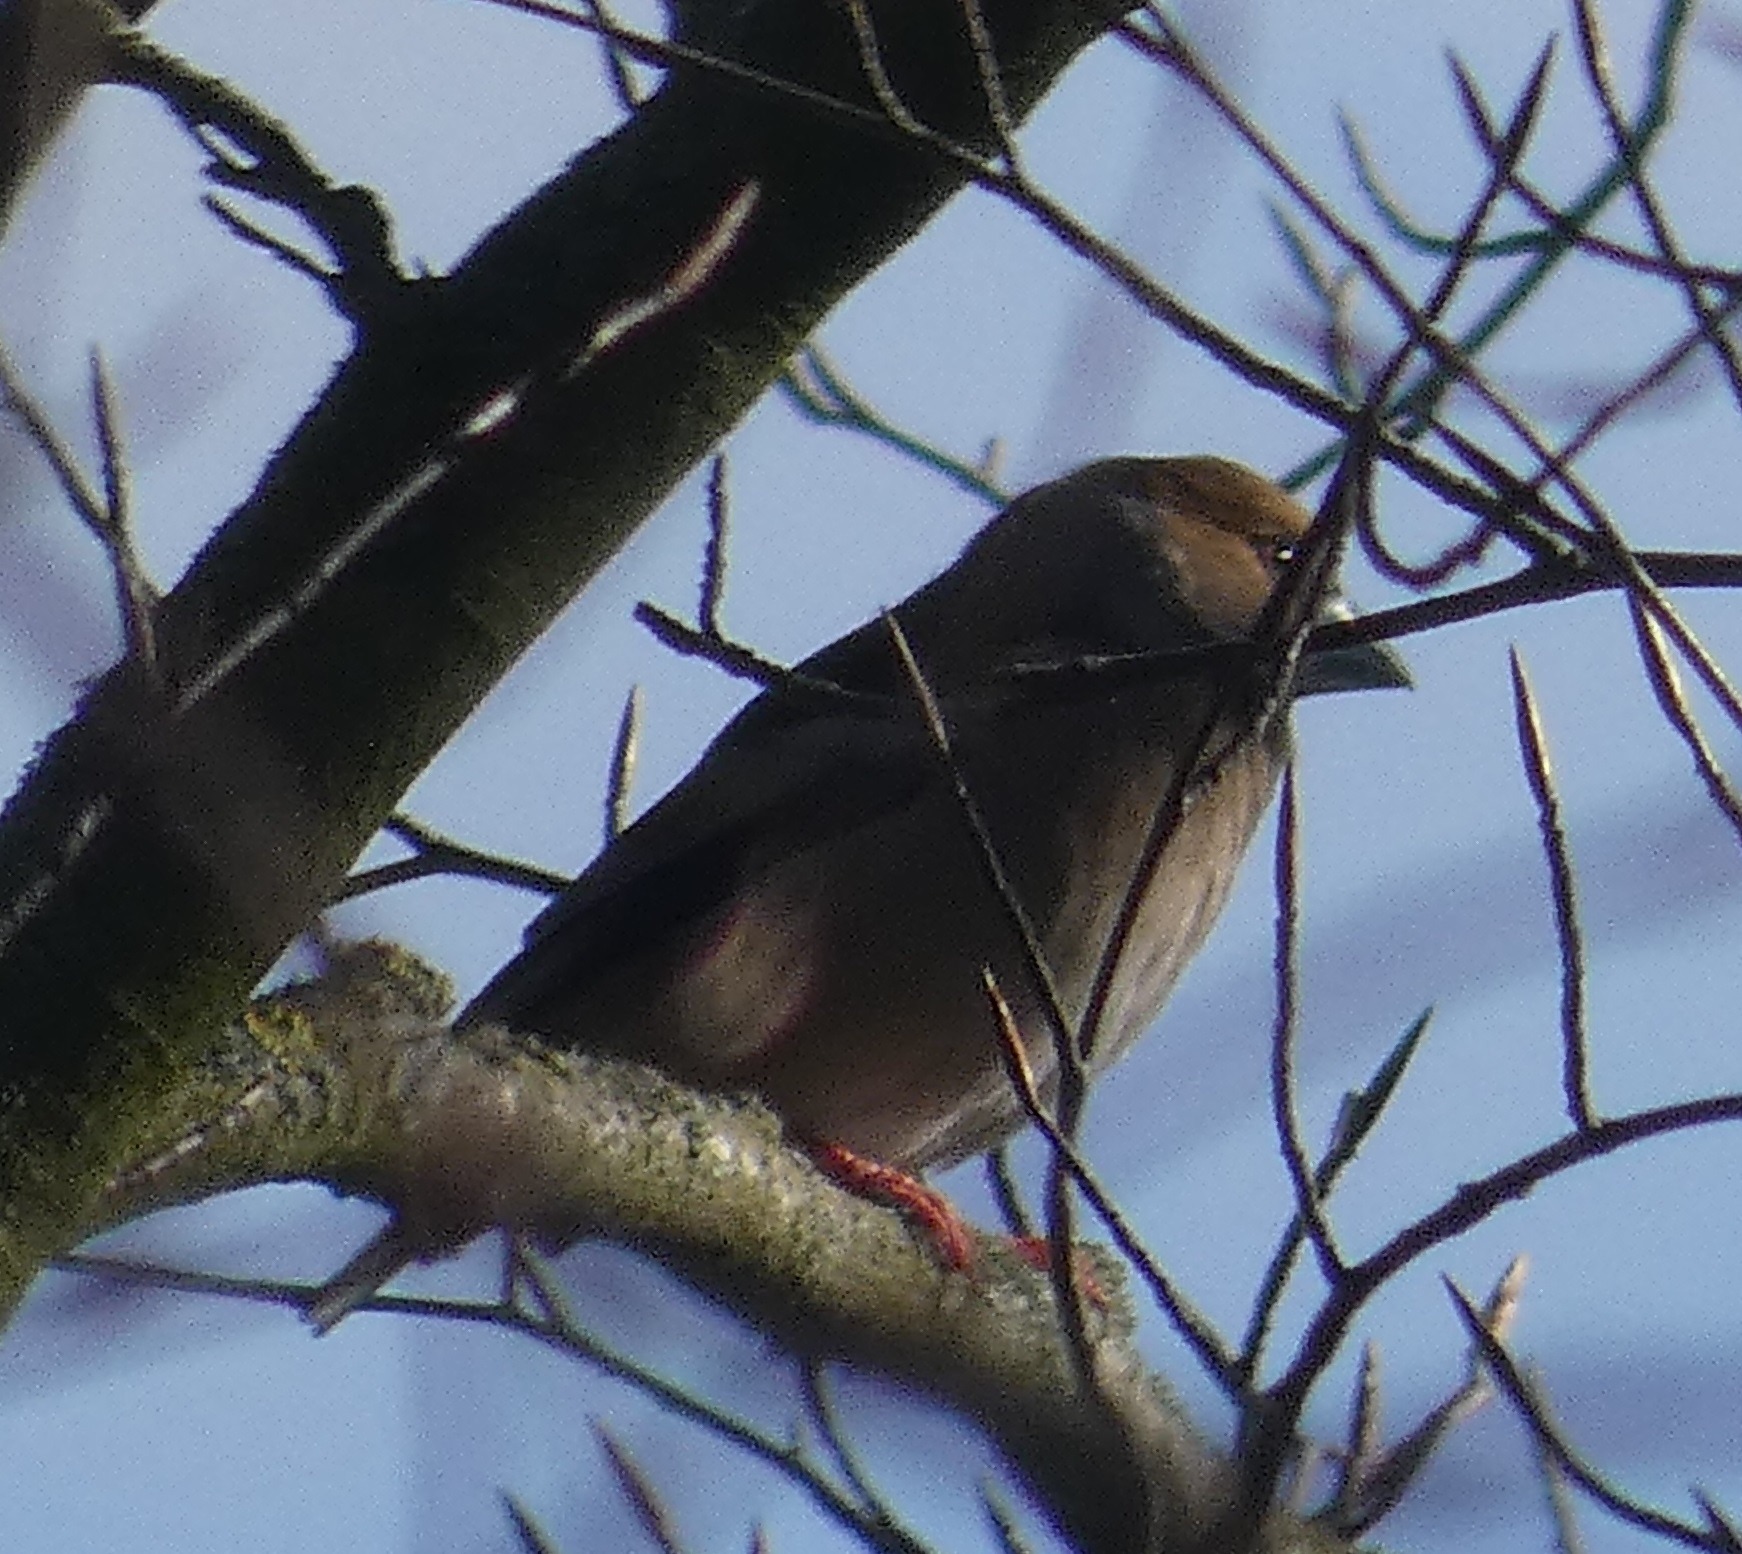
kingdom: Animalia
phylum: Chordata
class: Aves
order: Passeriformes
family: Fringillidae
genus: Coccothraustes
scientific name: Coccothraustes coccothraustes
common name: Kernebider
